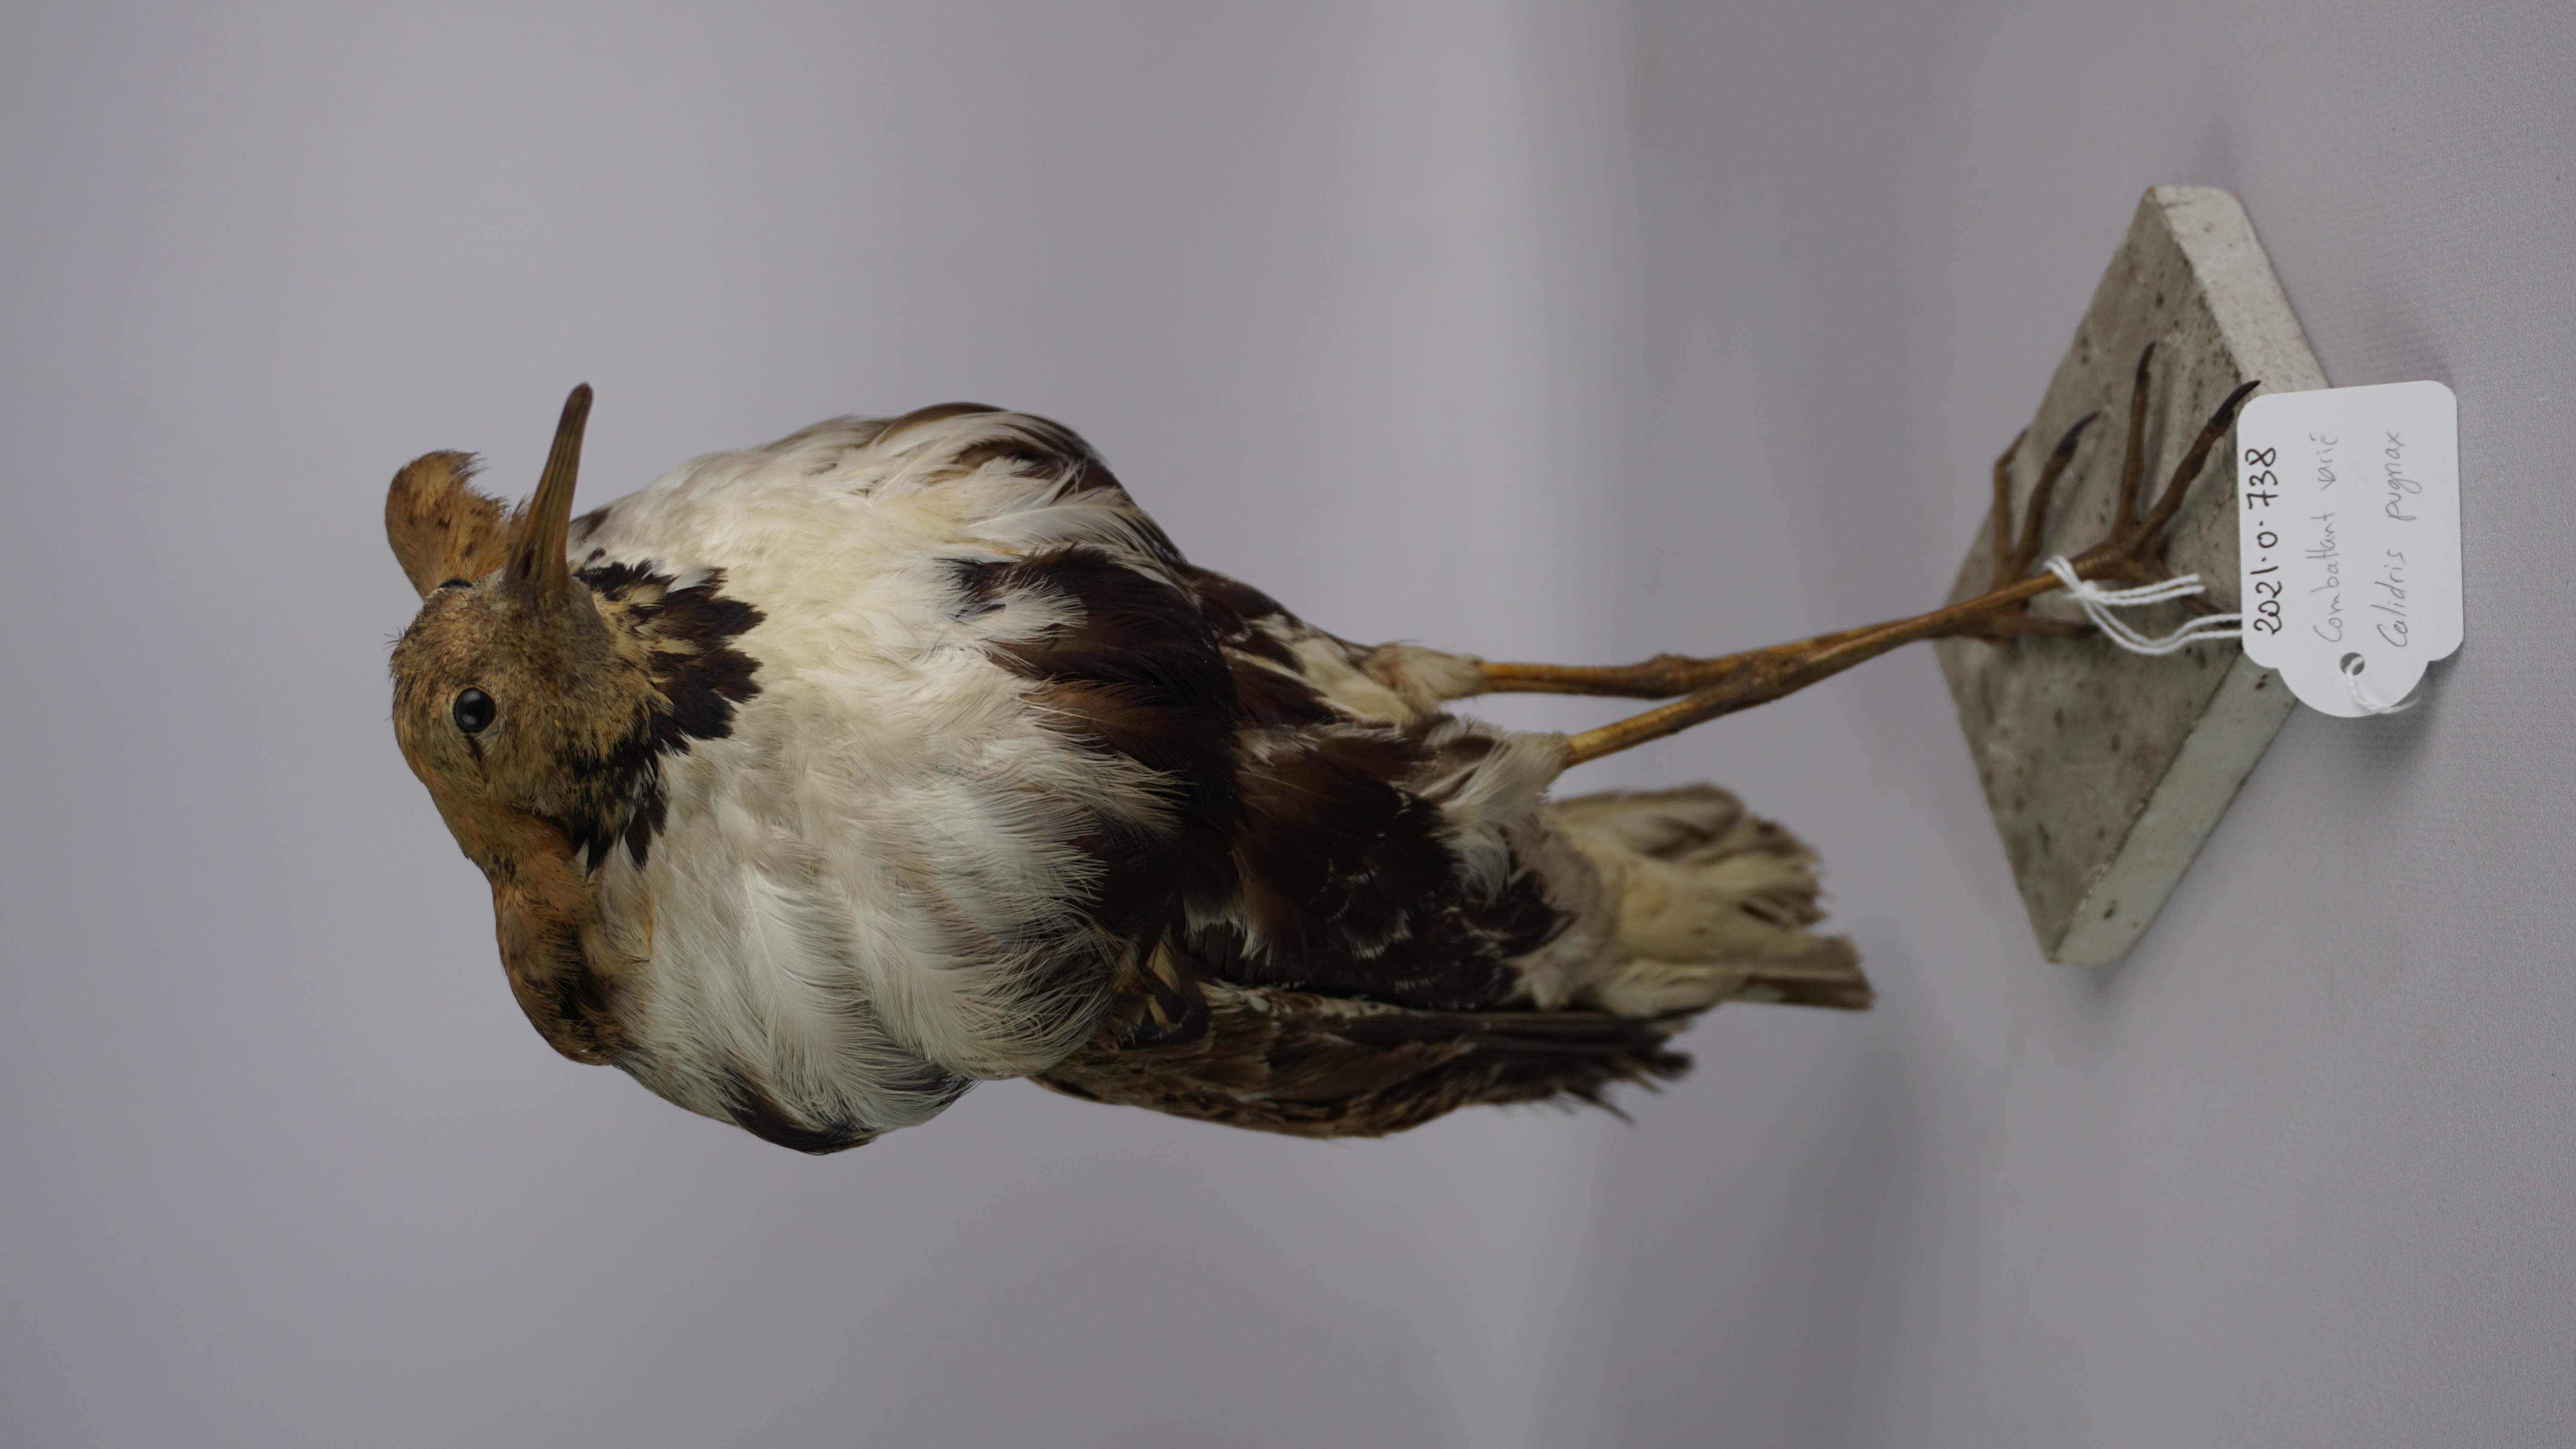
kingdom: Animalia
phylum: Chordata
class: Aves
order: Charadriiformes
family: Scolopacidae
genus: Calidris
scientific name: Calidris pugnax
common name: Ruff
